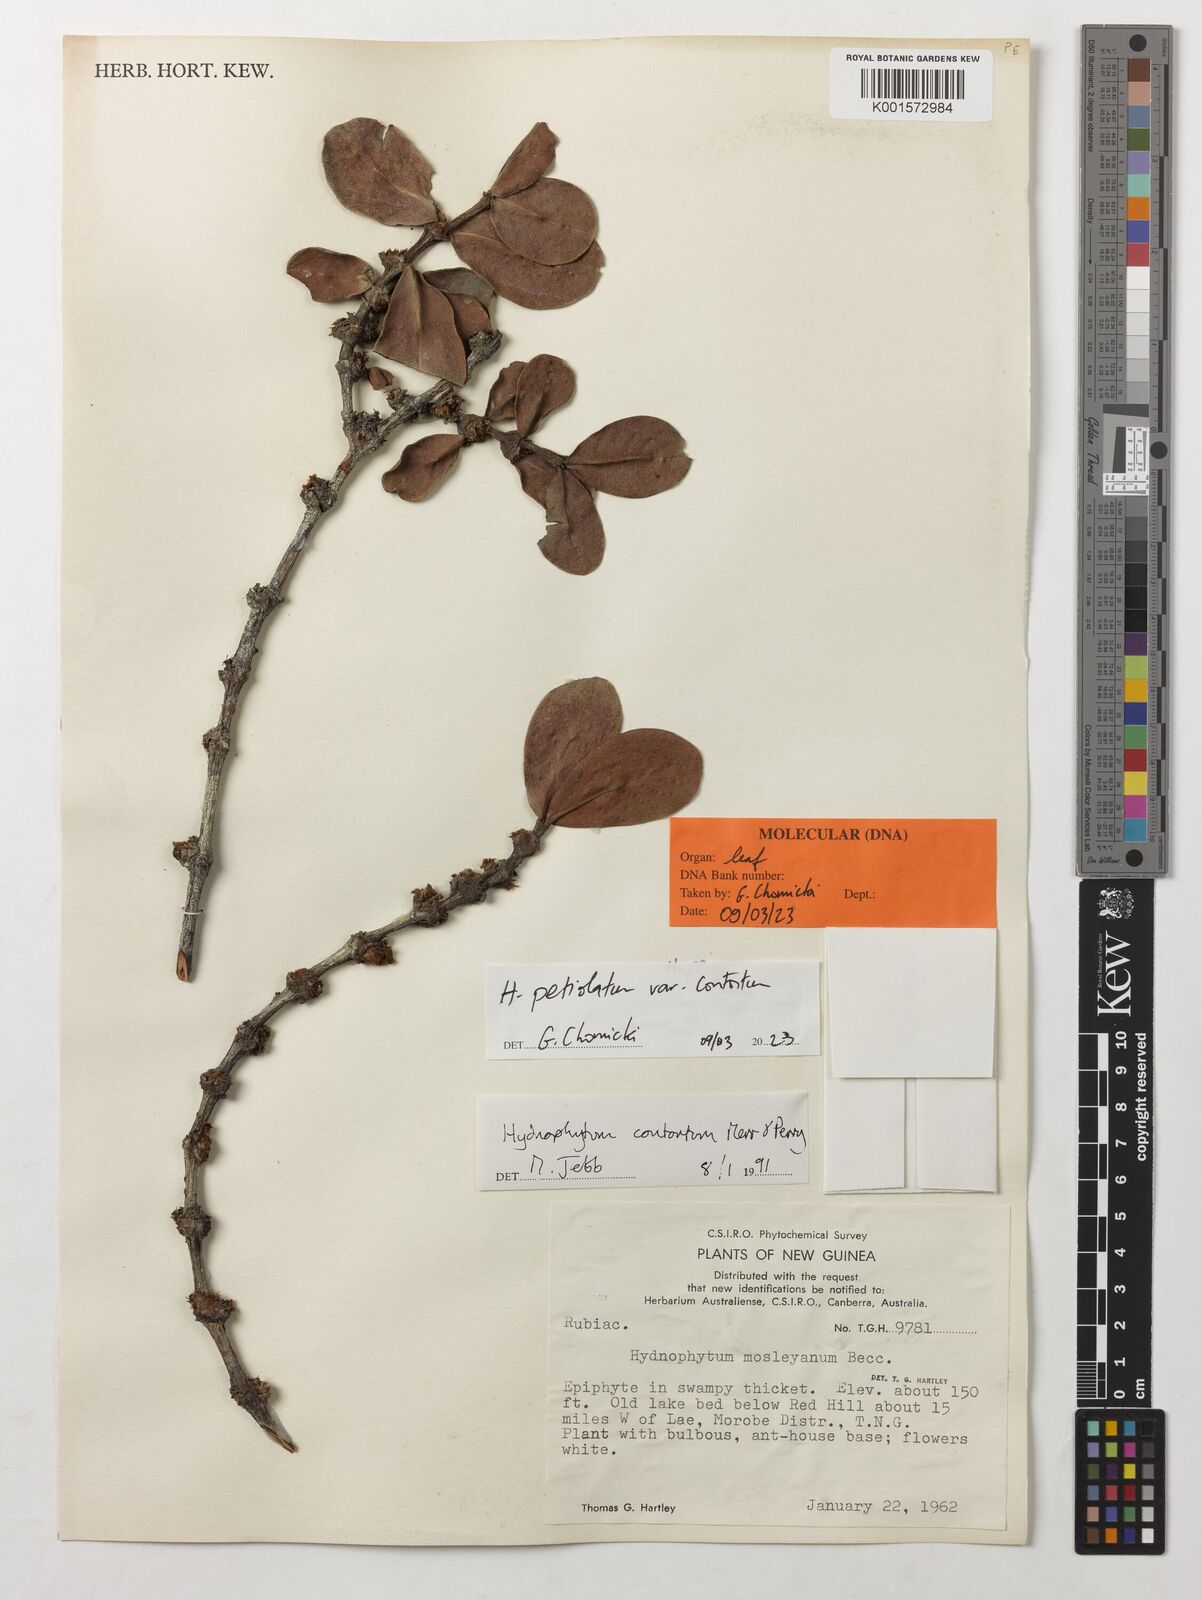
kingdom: Plantae
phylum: Tracheophyta
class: Magnoliopsida
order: Gentianales
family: Rubiaceae
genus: Hydnophytum
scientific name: Hydnophytum petiolatum
